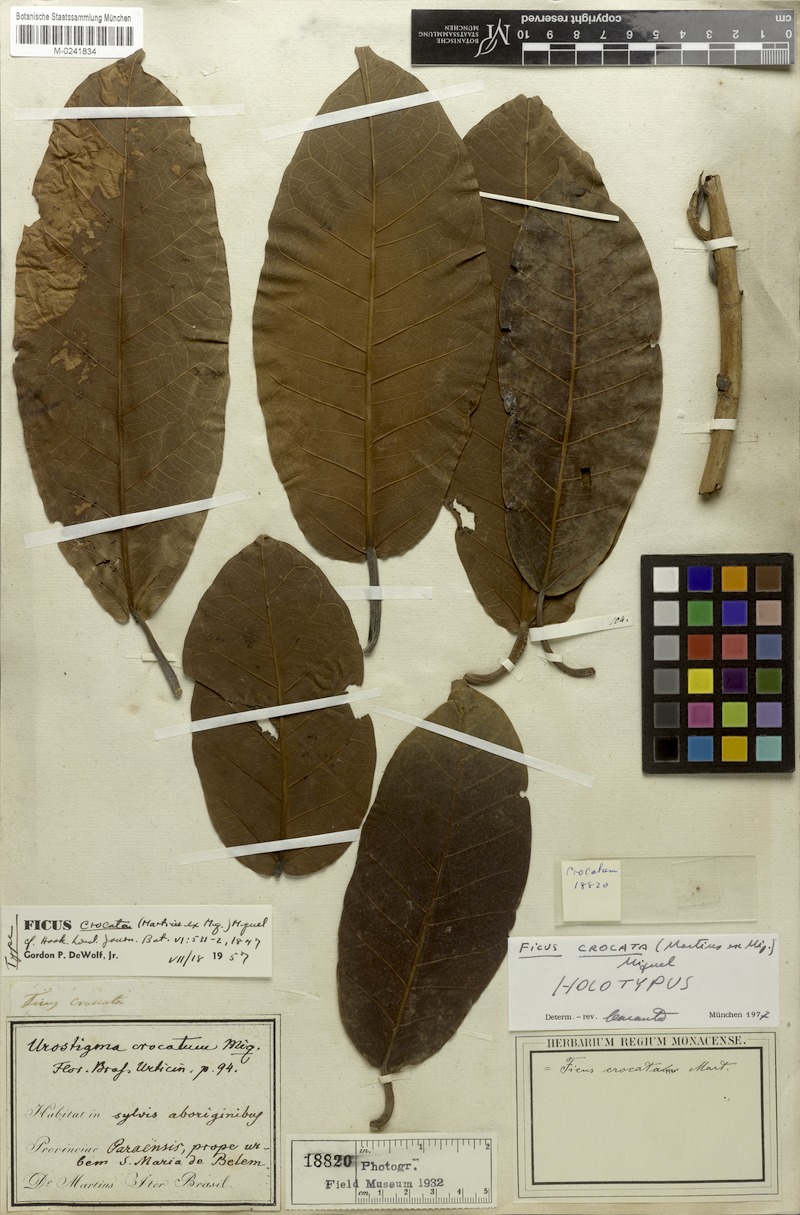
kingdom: Plantae
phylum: Tracheophyta
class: Magnoliopsida
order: Rosales
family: Moraceae
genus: Ficus
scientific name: Ficus crocata
